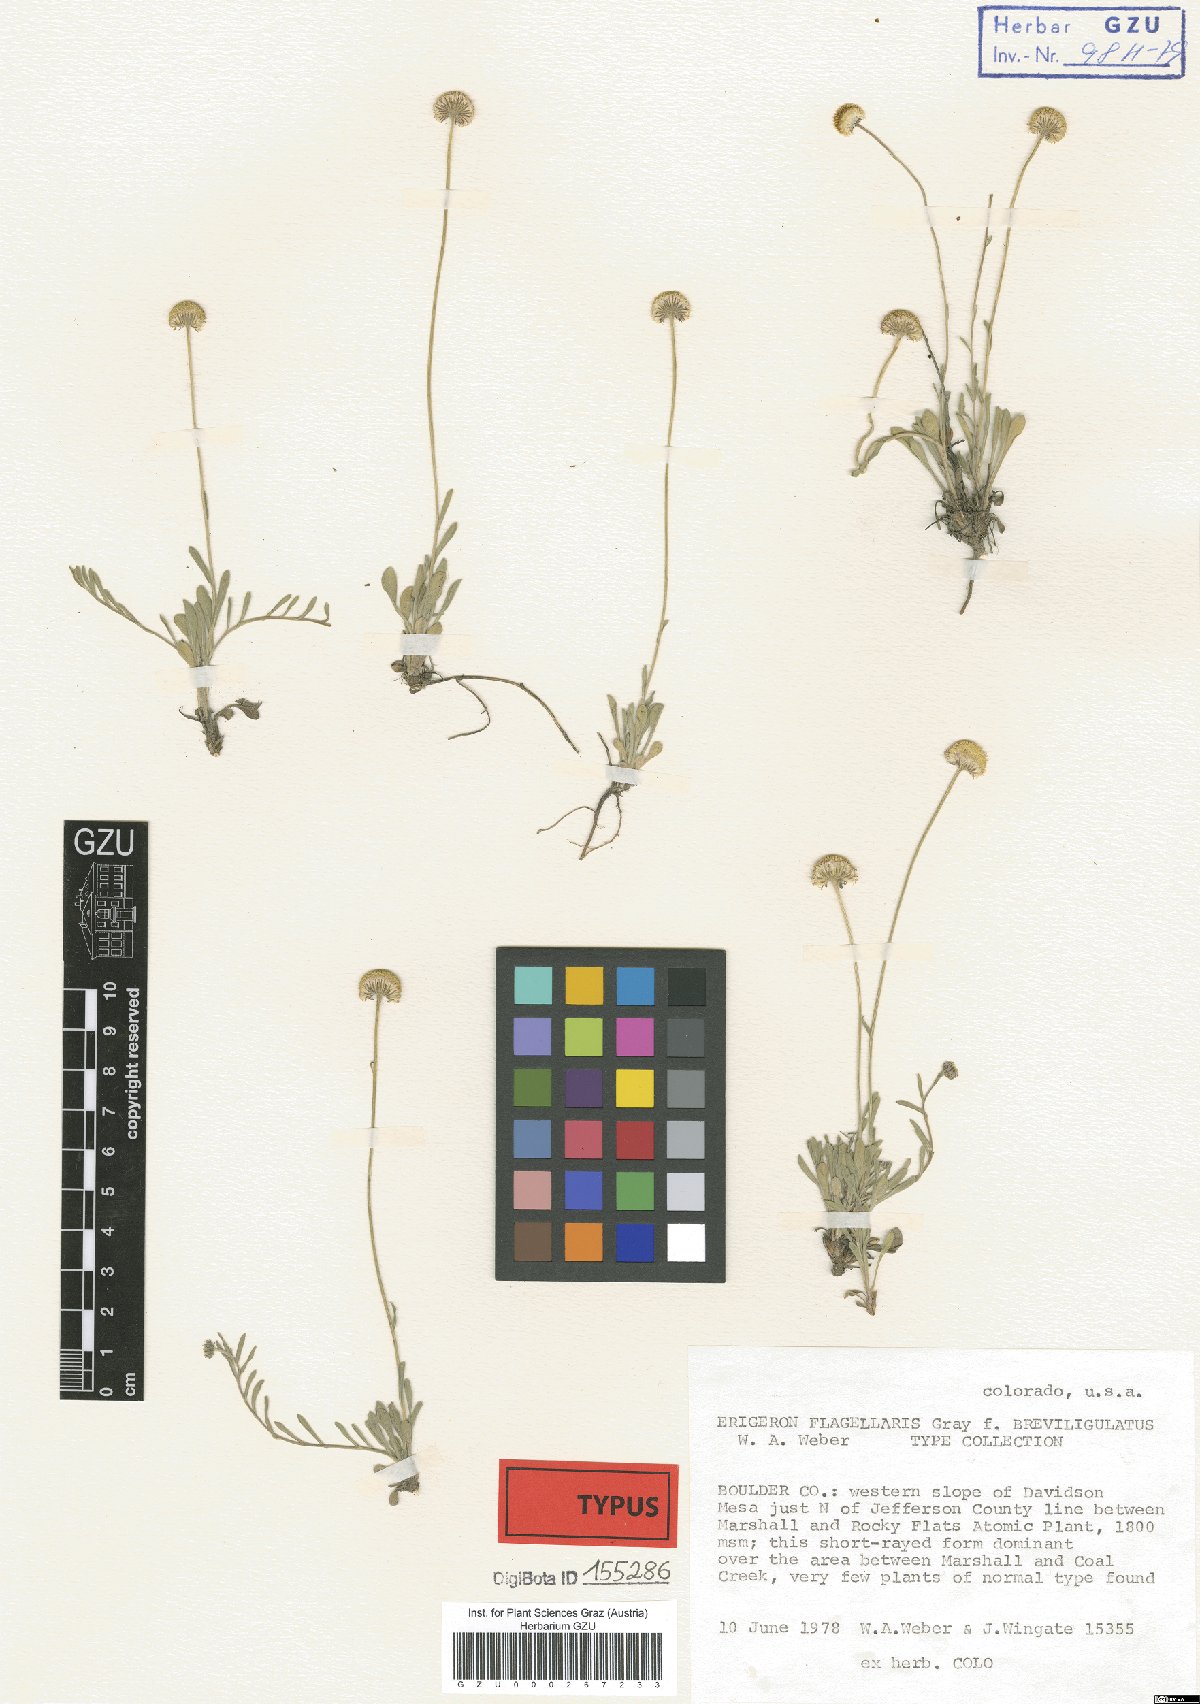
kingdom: Plantae
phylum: Tracheophyta
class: Magnoliopsida
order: Asterales
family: Asteraceae
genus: Erigeron
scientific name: Erigeron flagellaris
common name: Running fleabane
